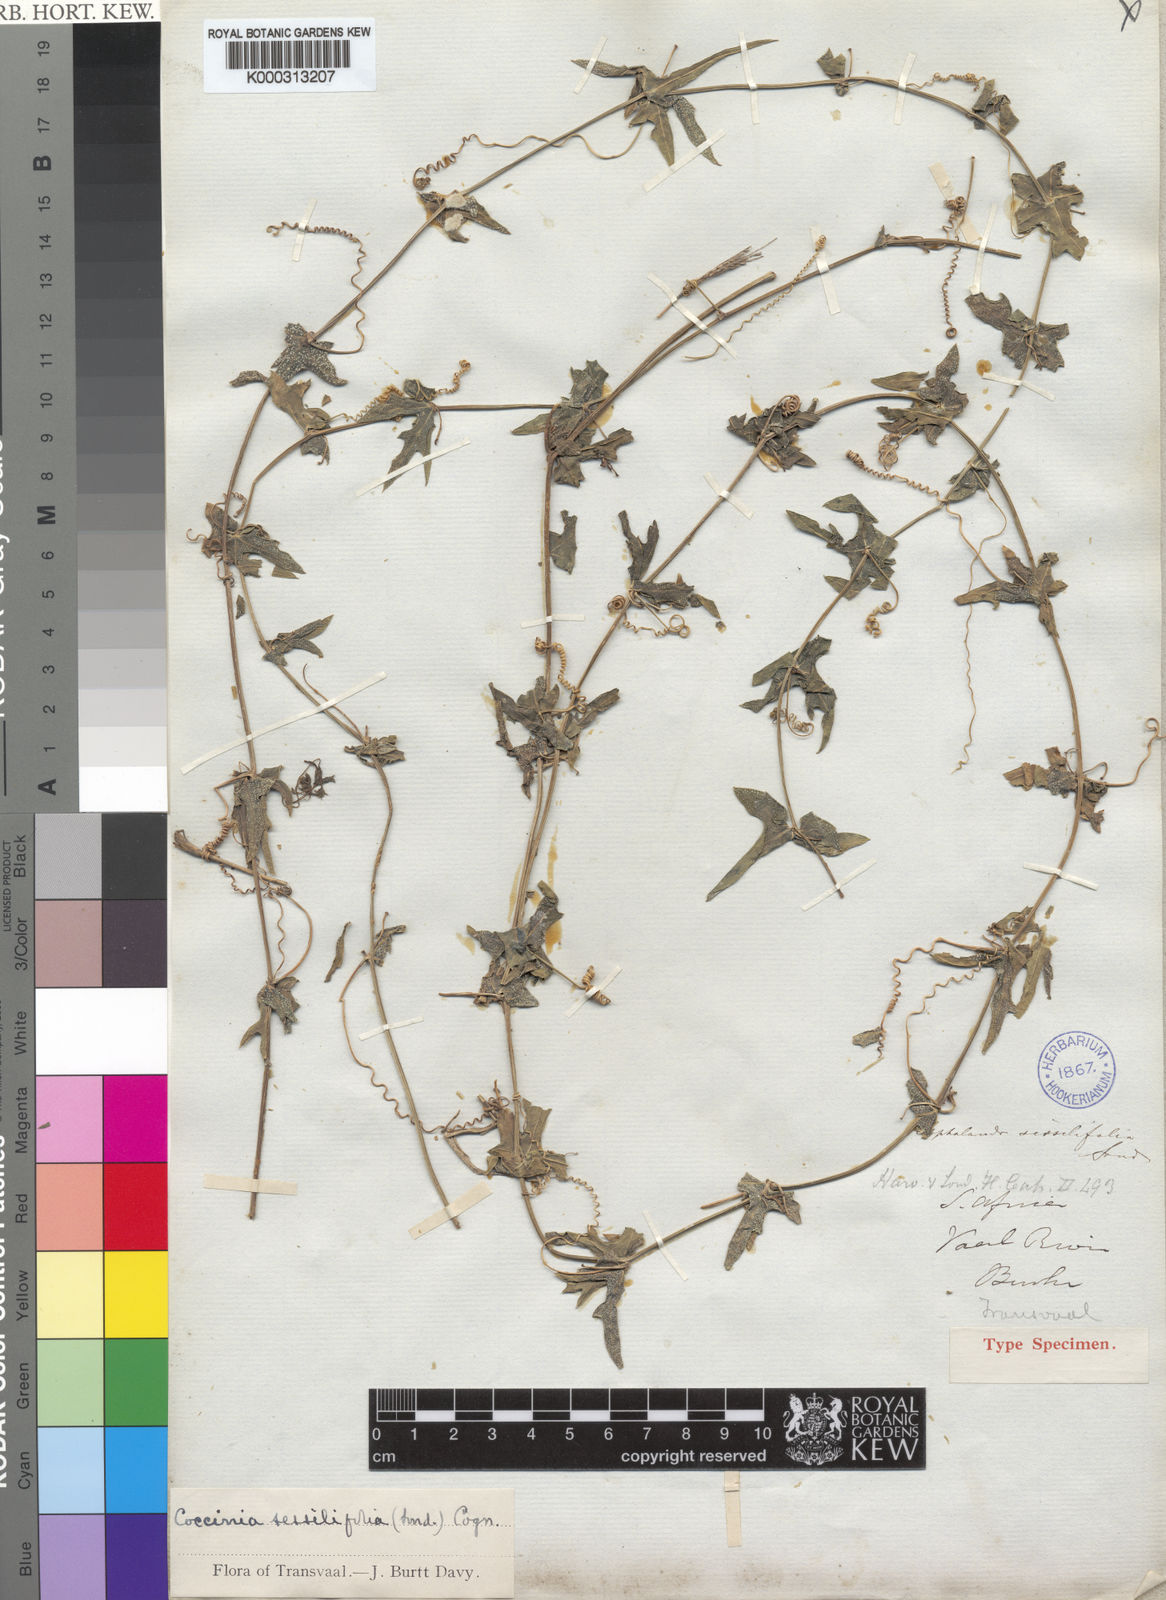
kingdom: Plantae
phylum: Tracheophyta
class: Magnoliopsida
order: Cucurbitales
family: Cucurbitaceae
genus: Coccinia
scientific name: Coccinia sessilifolia
